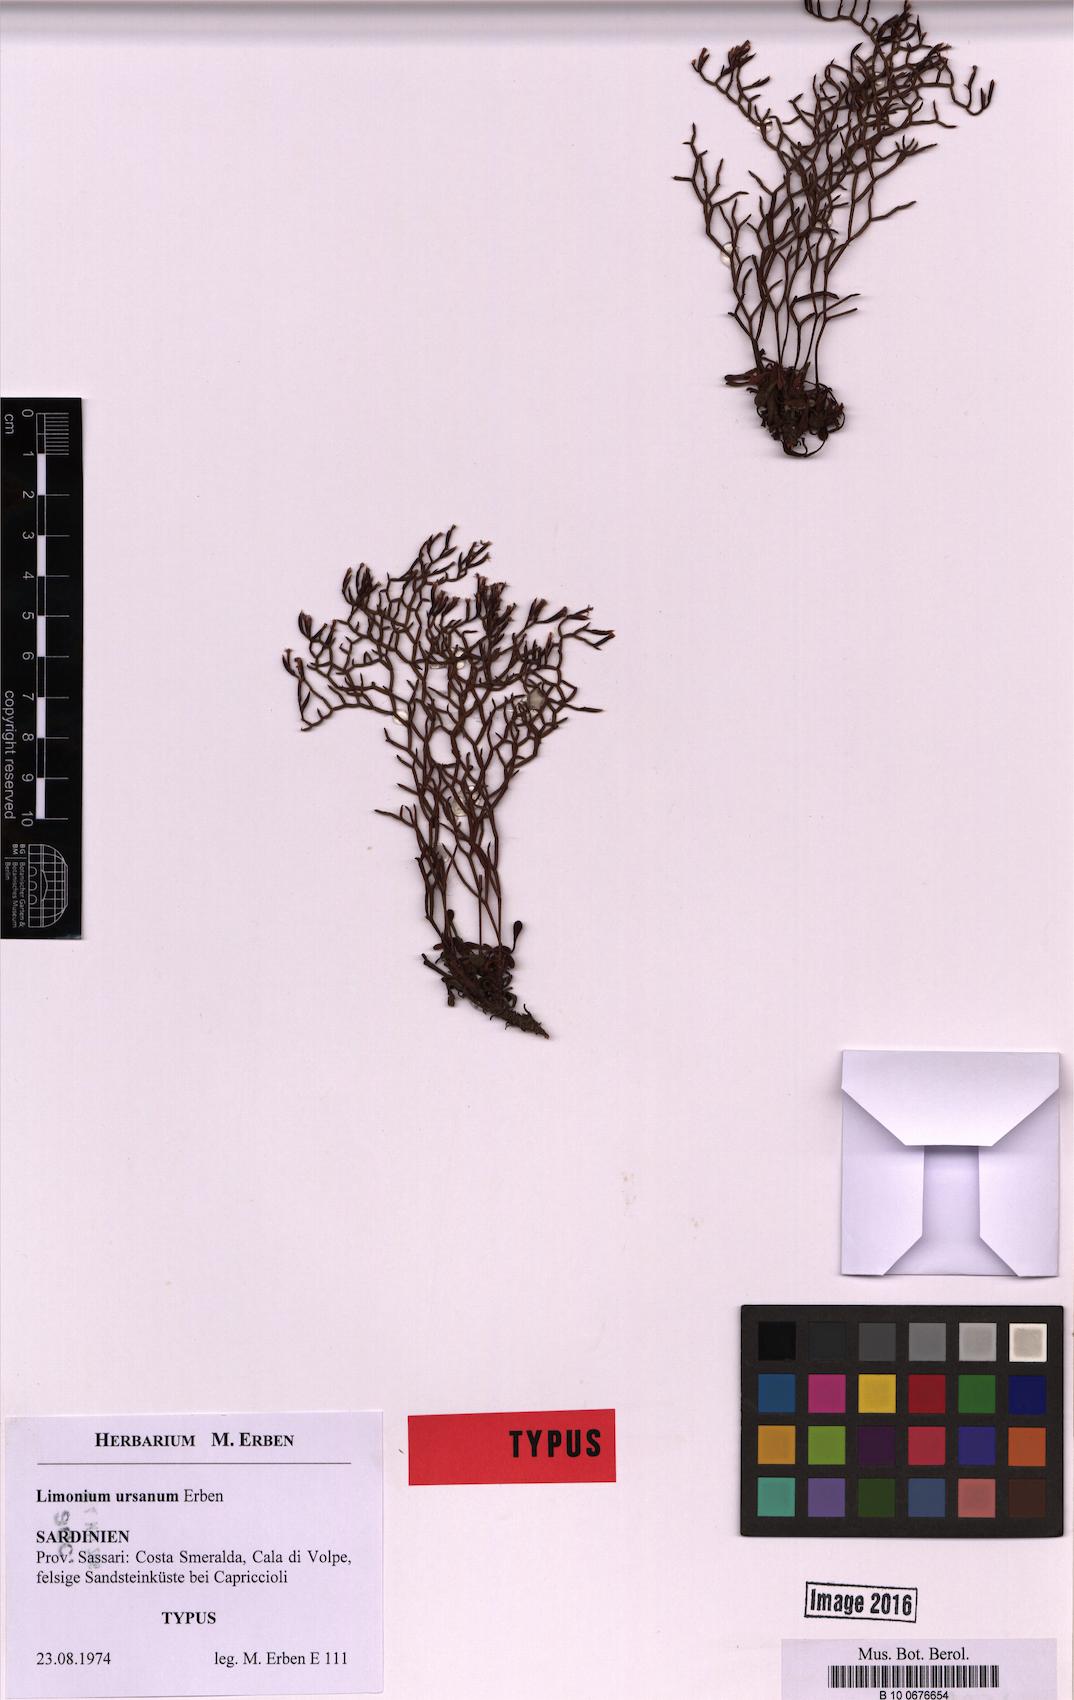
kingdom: Plantae
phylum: Tracheophyta
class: Magnoliopsida
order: Caryophyllales
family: Plumbaginaceae
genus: Limonium
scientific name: Limonium ursanum
